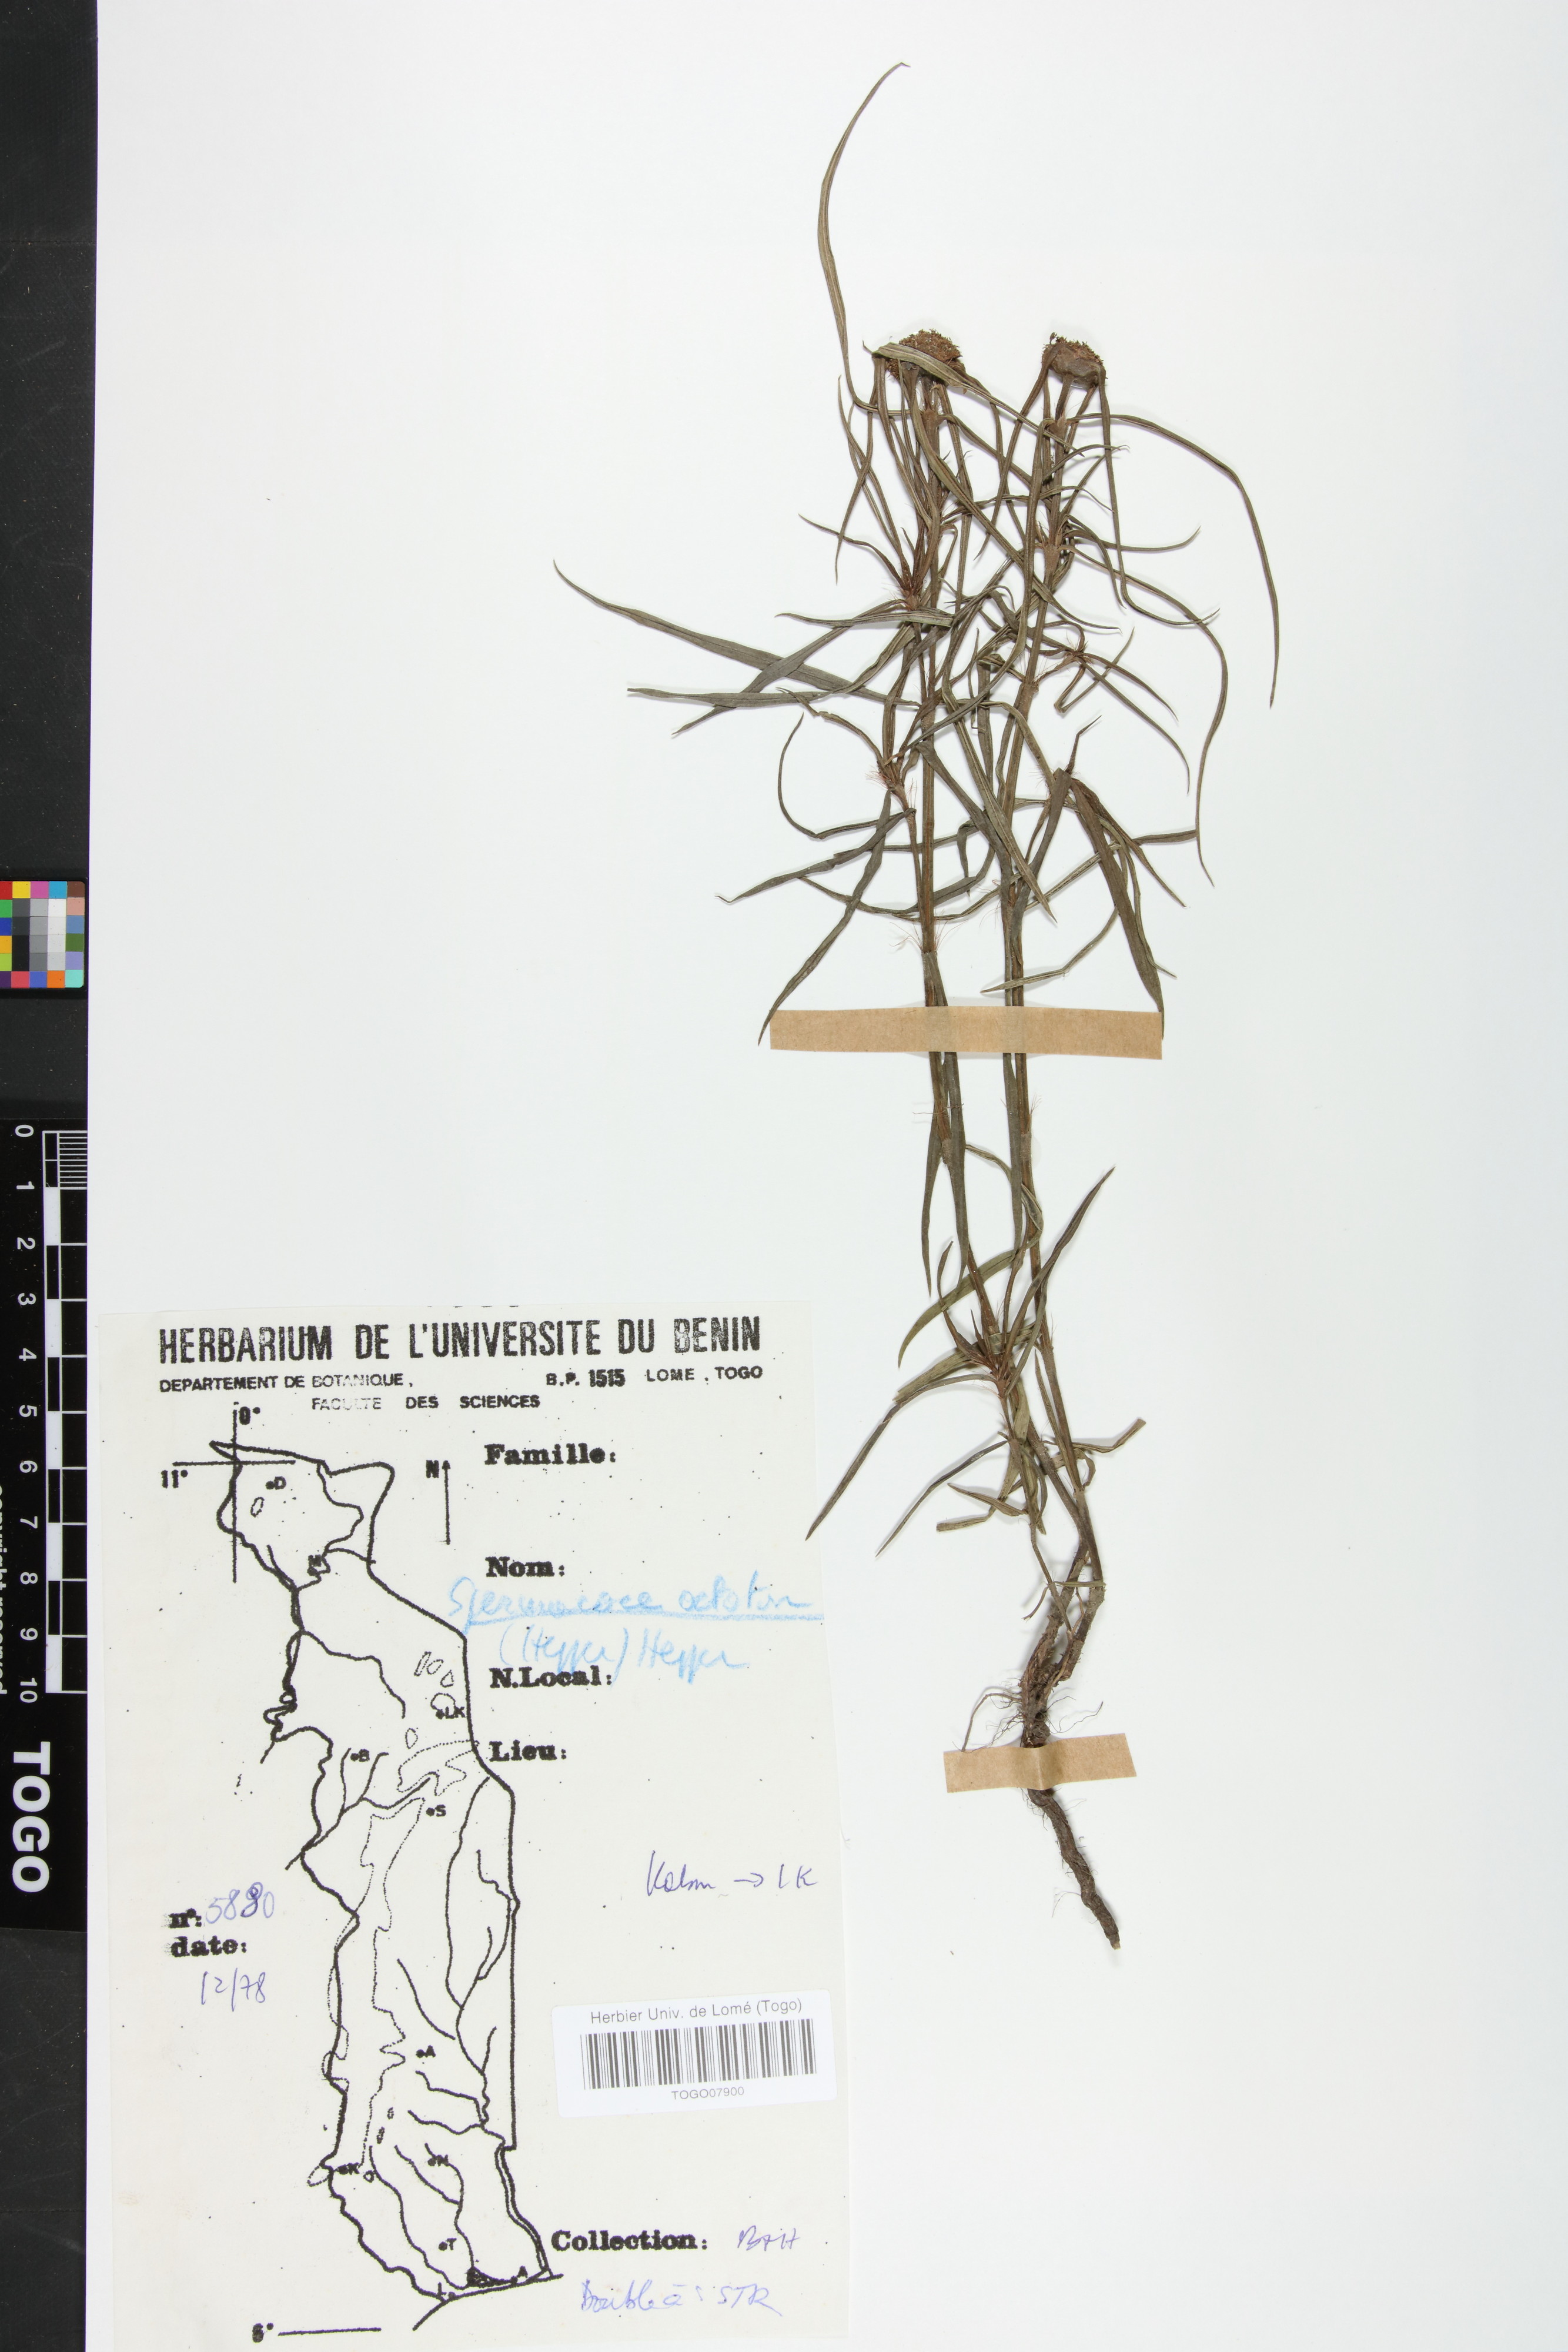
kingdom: Plantae
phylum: Tracheophyta
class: Magnoliopsida
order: Gentianales
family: Rubiaceae
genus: Spermacoce
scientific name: Spermacoce octodon
